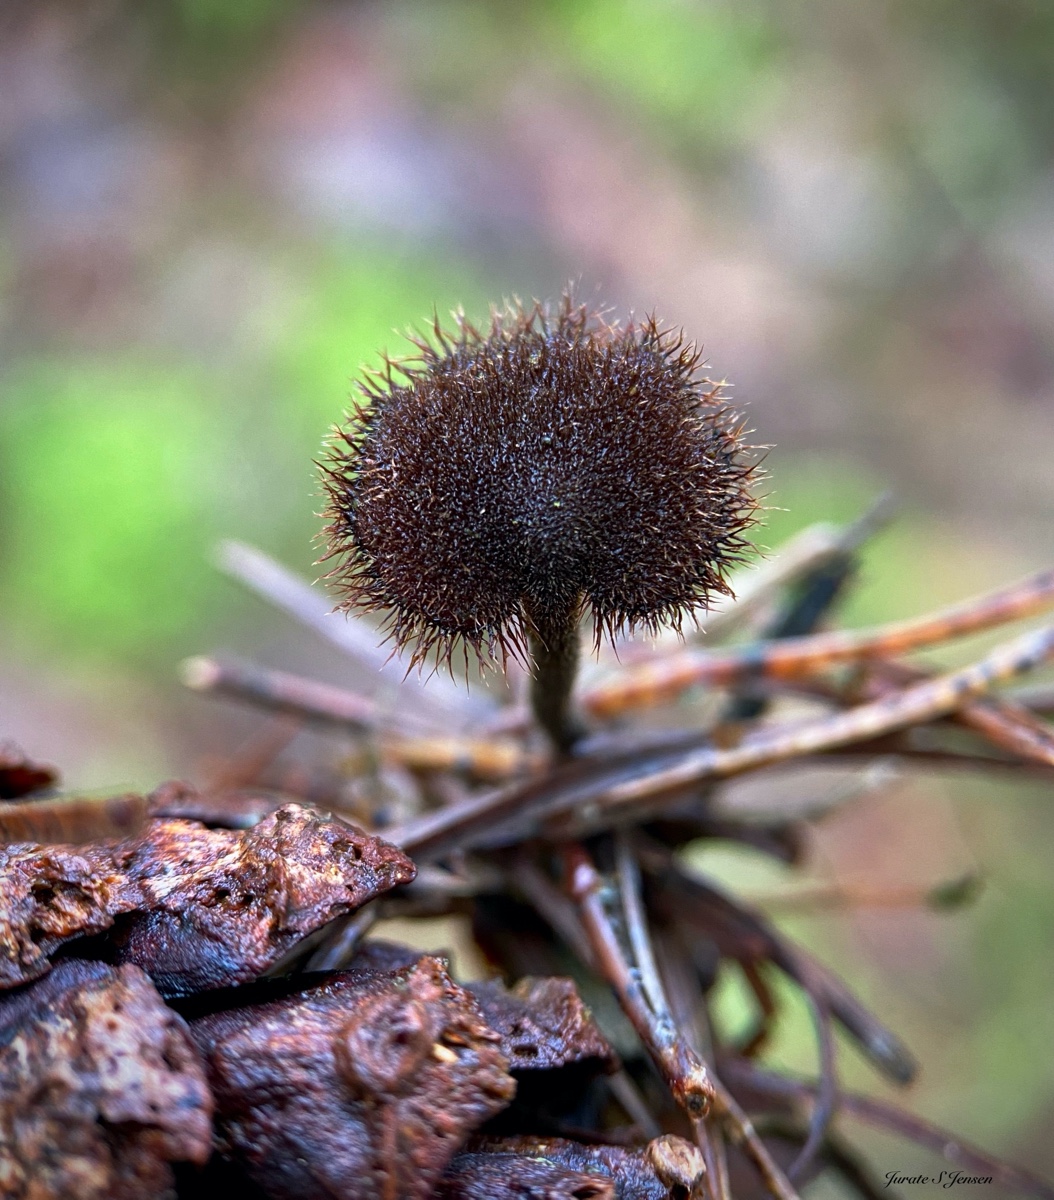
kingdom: Fungi
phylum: Basidiomycota
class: Agaricomycetes
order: Russulales
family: Auriscalpiaceae
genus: Auriscalpium
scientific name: Auriscalpium vulgare
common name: koglepigsvamp
